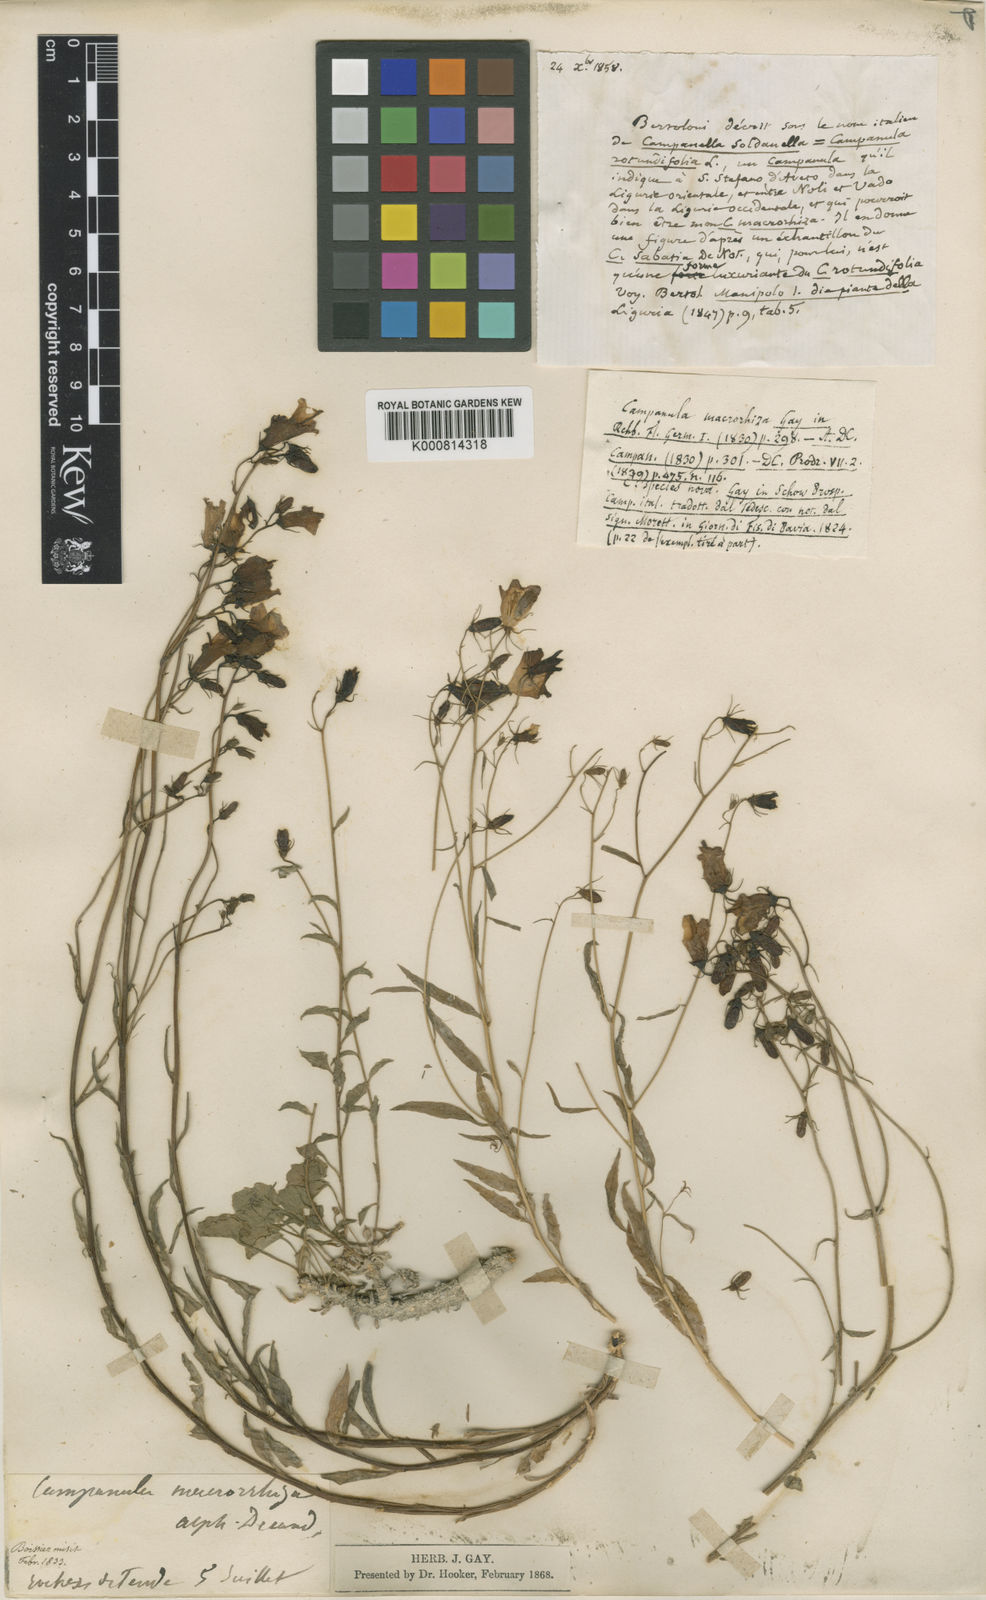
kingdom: Plantae
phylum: Tracheophyta
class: Magnoliopsida
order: Asterales
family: Campanulaceae
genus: Campanula
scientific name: Campanula macrorhiza
